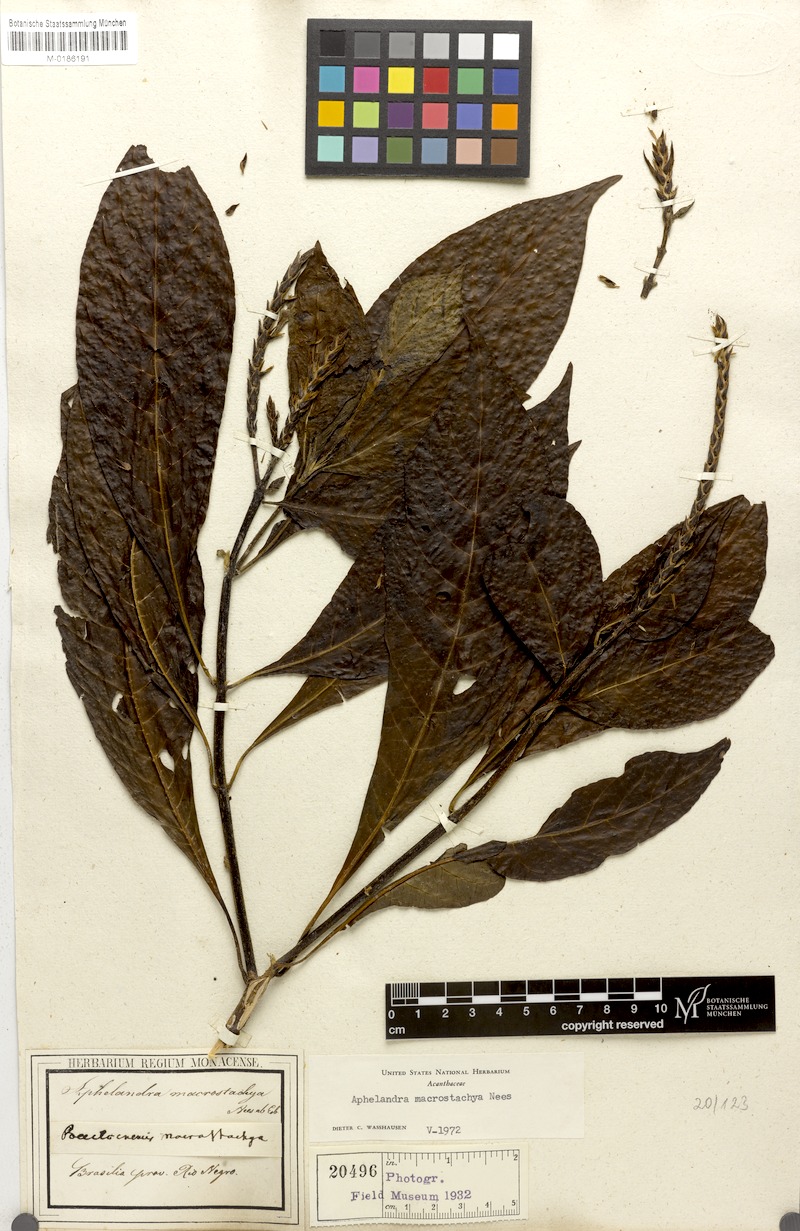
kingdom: Plantae
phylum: Tracheophyta
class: Magnoliopsida
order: Lamiales
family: Acanthaceae
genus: Aphelandra
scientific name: Aphelandra macrostachya
